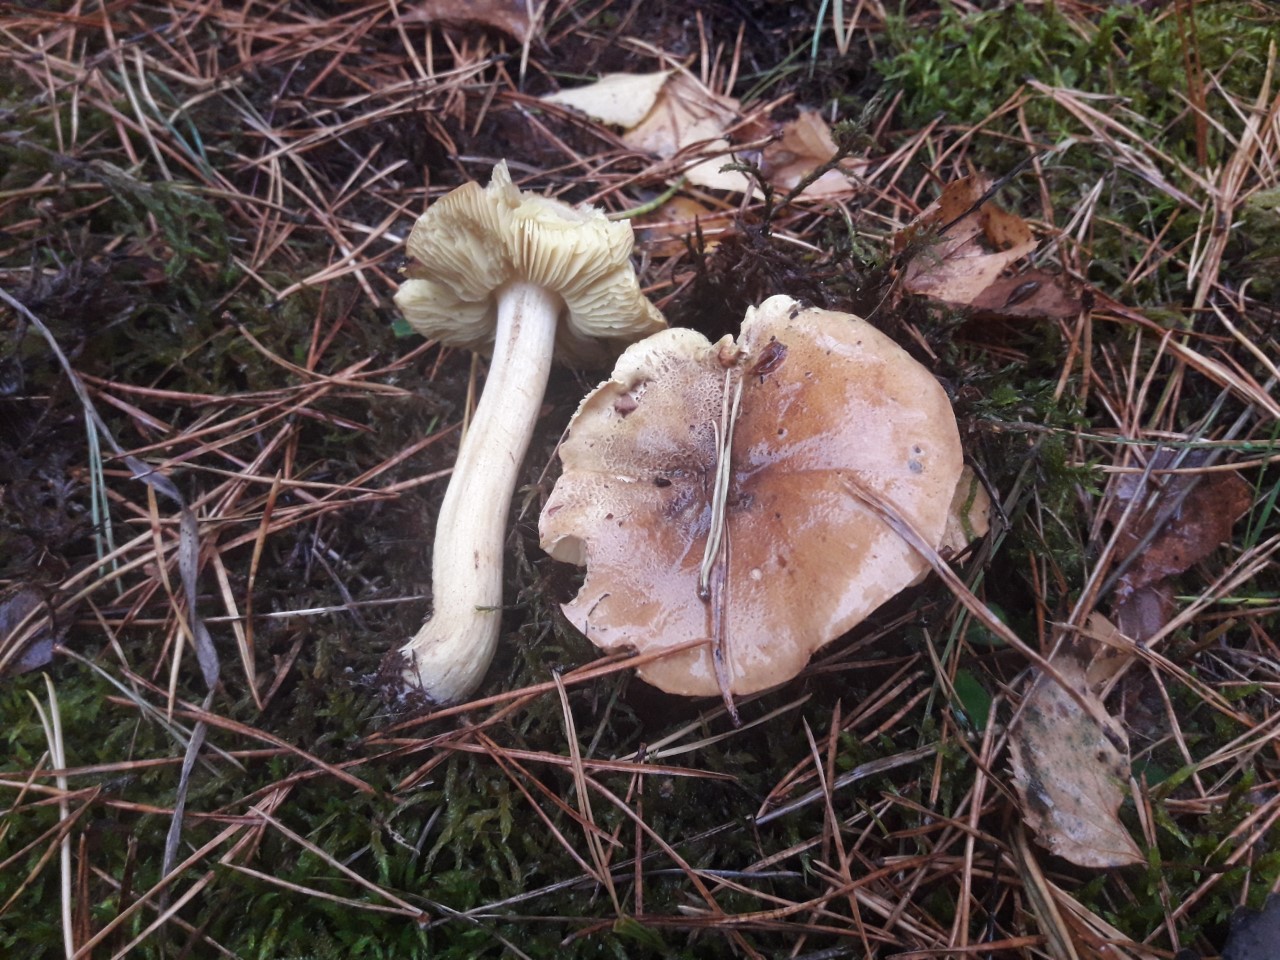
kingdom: Fungi
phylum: Basidiomycota
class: Agaricomycetes
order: Agaricales
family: Tricholomataceae
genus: Tricholoma
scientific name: Tricholoma equestre
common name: ægte ridderhat
